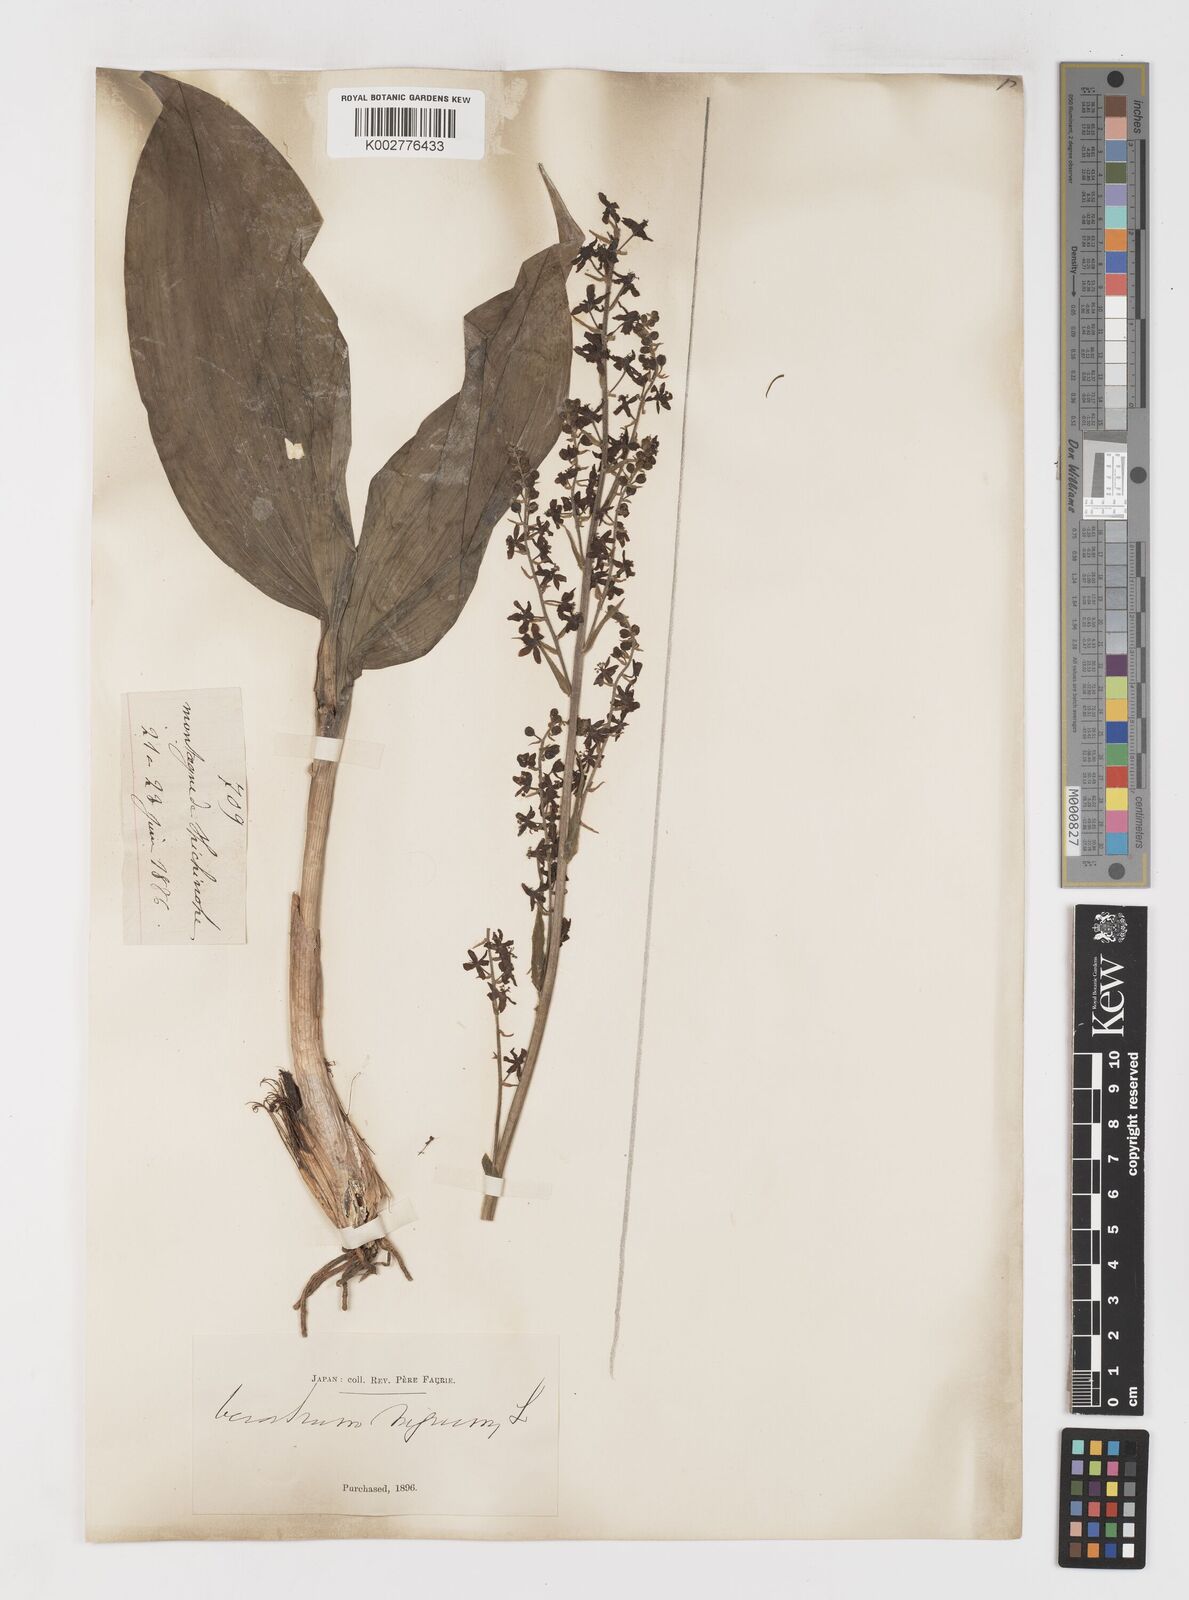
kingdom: Plantae
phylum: Tracheophyta
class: Liliopsida
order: Liliales
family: Melanthiaceae
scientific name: Melanthiaceae
